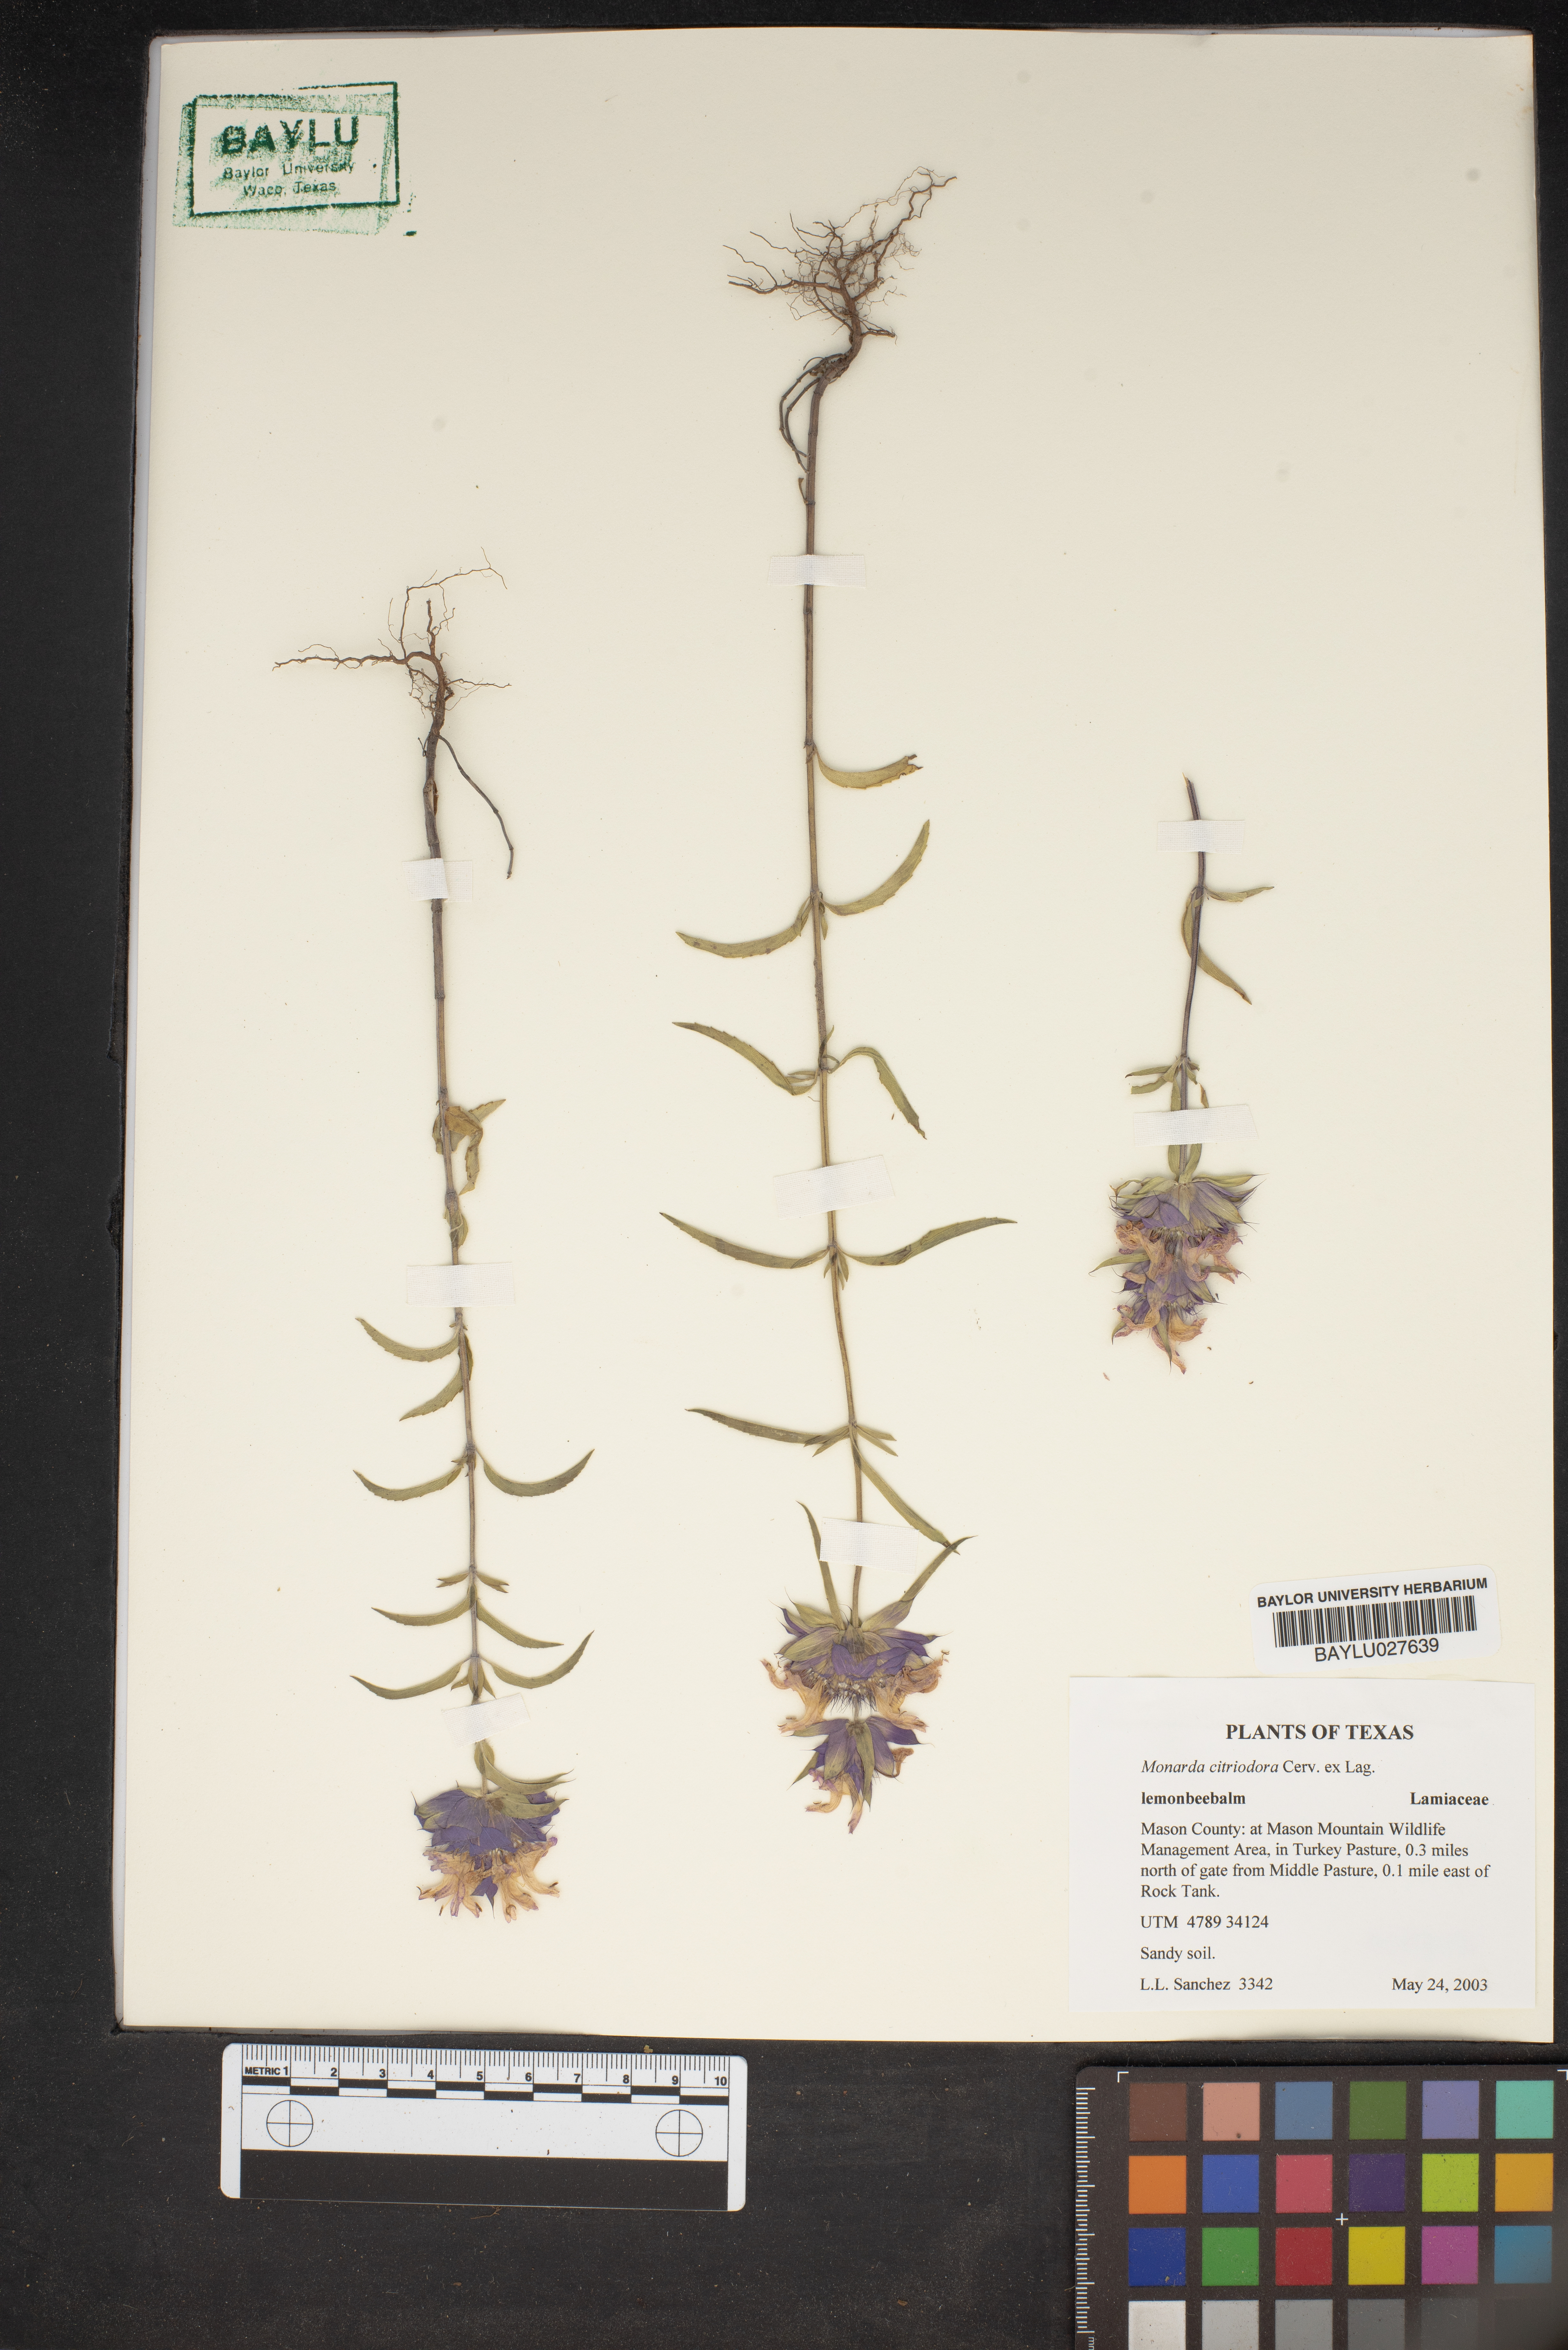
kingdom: Plantae
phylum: Tracheophyta
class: Magnoliopsida
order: Lamiales
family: Lamiaceae
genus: Monarda
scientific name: Monarda citriodora
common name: Lemon beebalm
